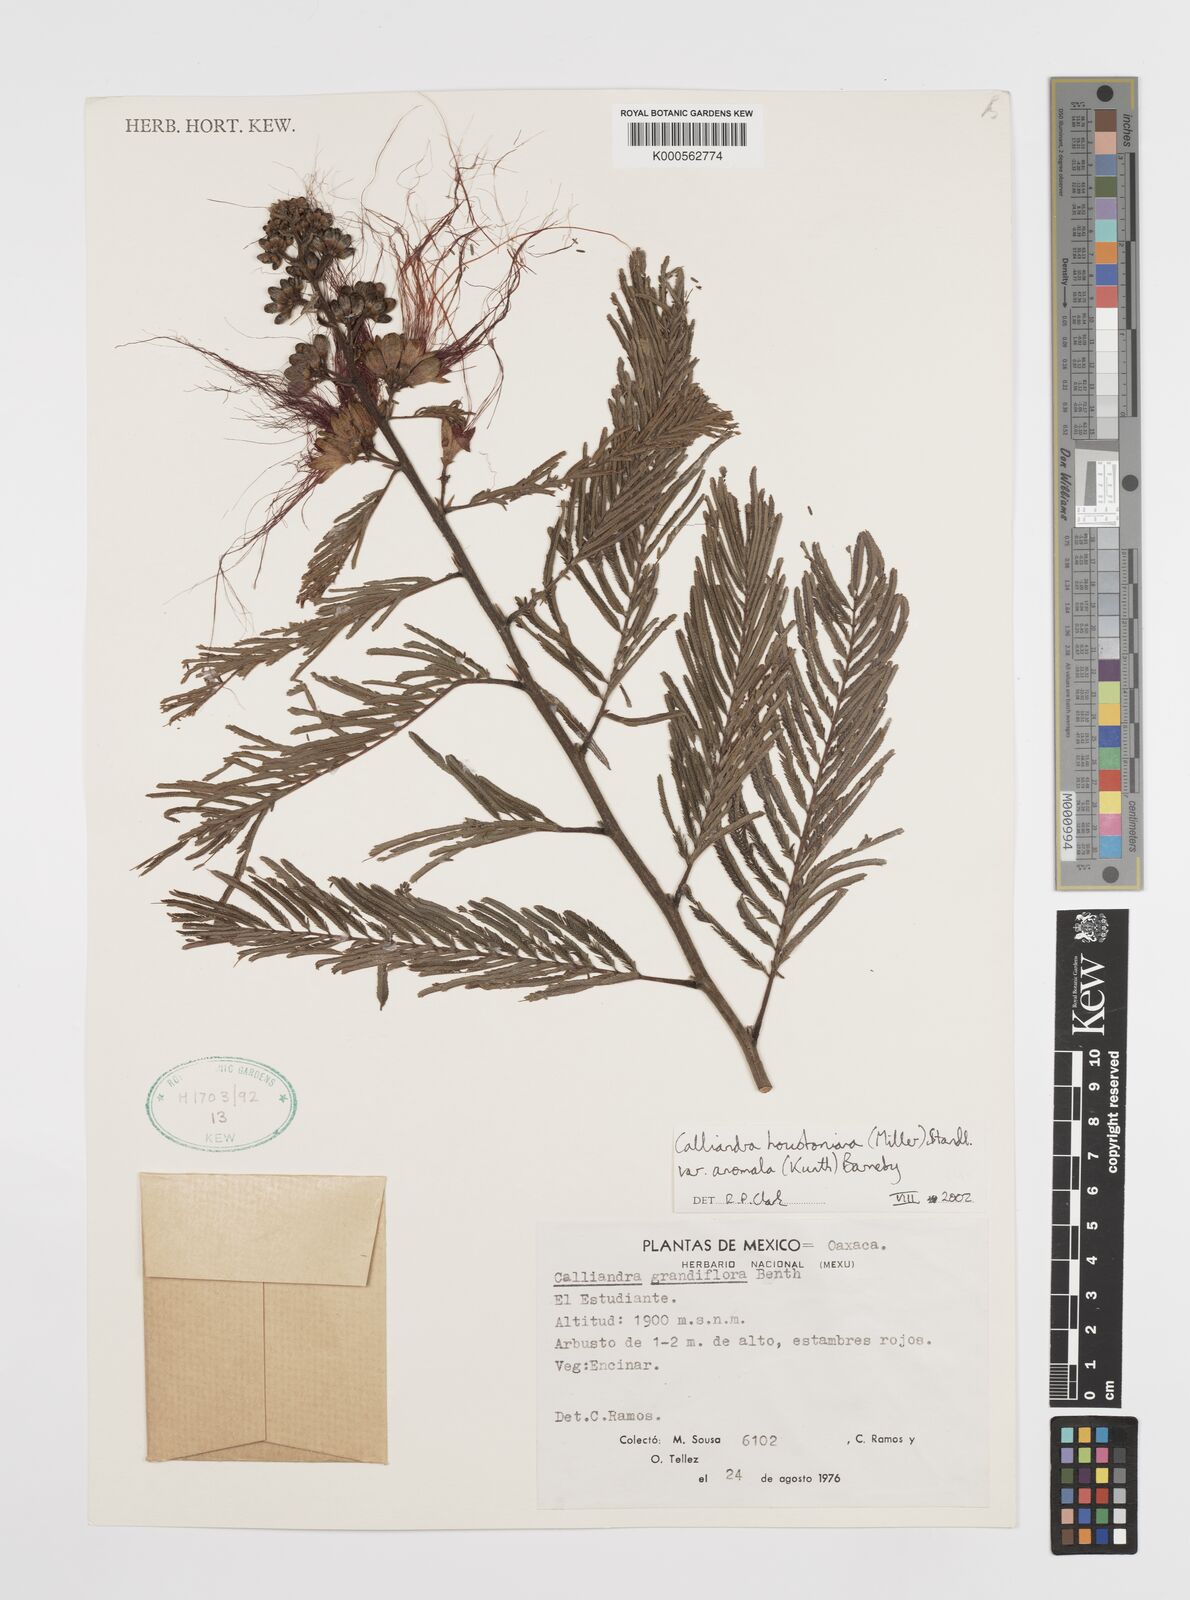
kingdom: Plantae
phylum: Tracheophyta
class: Magnoliopsida
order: Fabales
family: Fabaceae
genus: Calliandra
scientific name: Calliandra houstoniana
